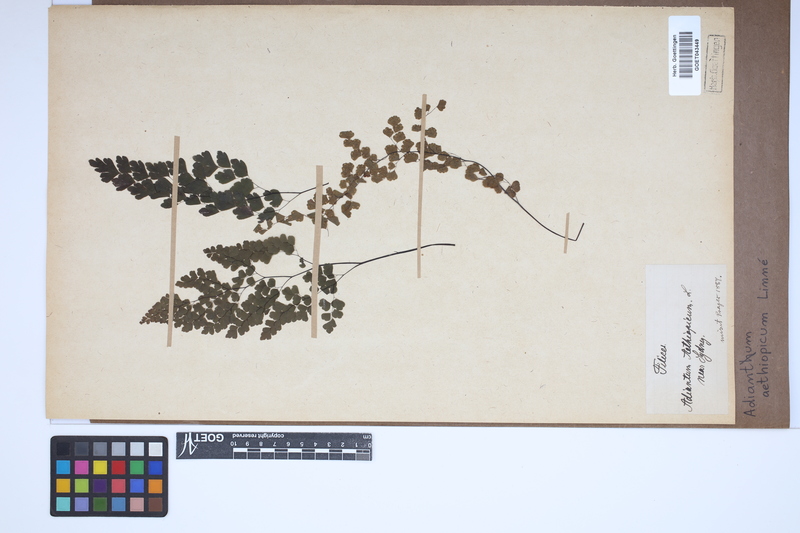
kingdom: Plantae
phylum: Tracheophyta
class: Polypodiopsida
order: Polypodiales
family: Pteridaceae
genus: Adiantum
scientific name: Adiantum aethiopicum
